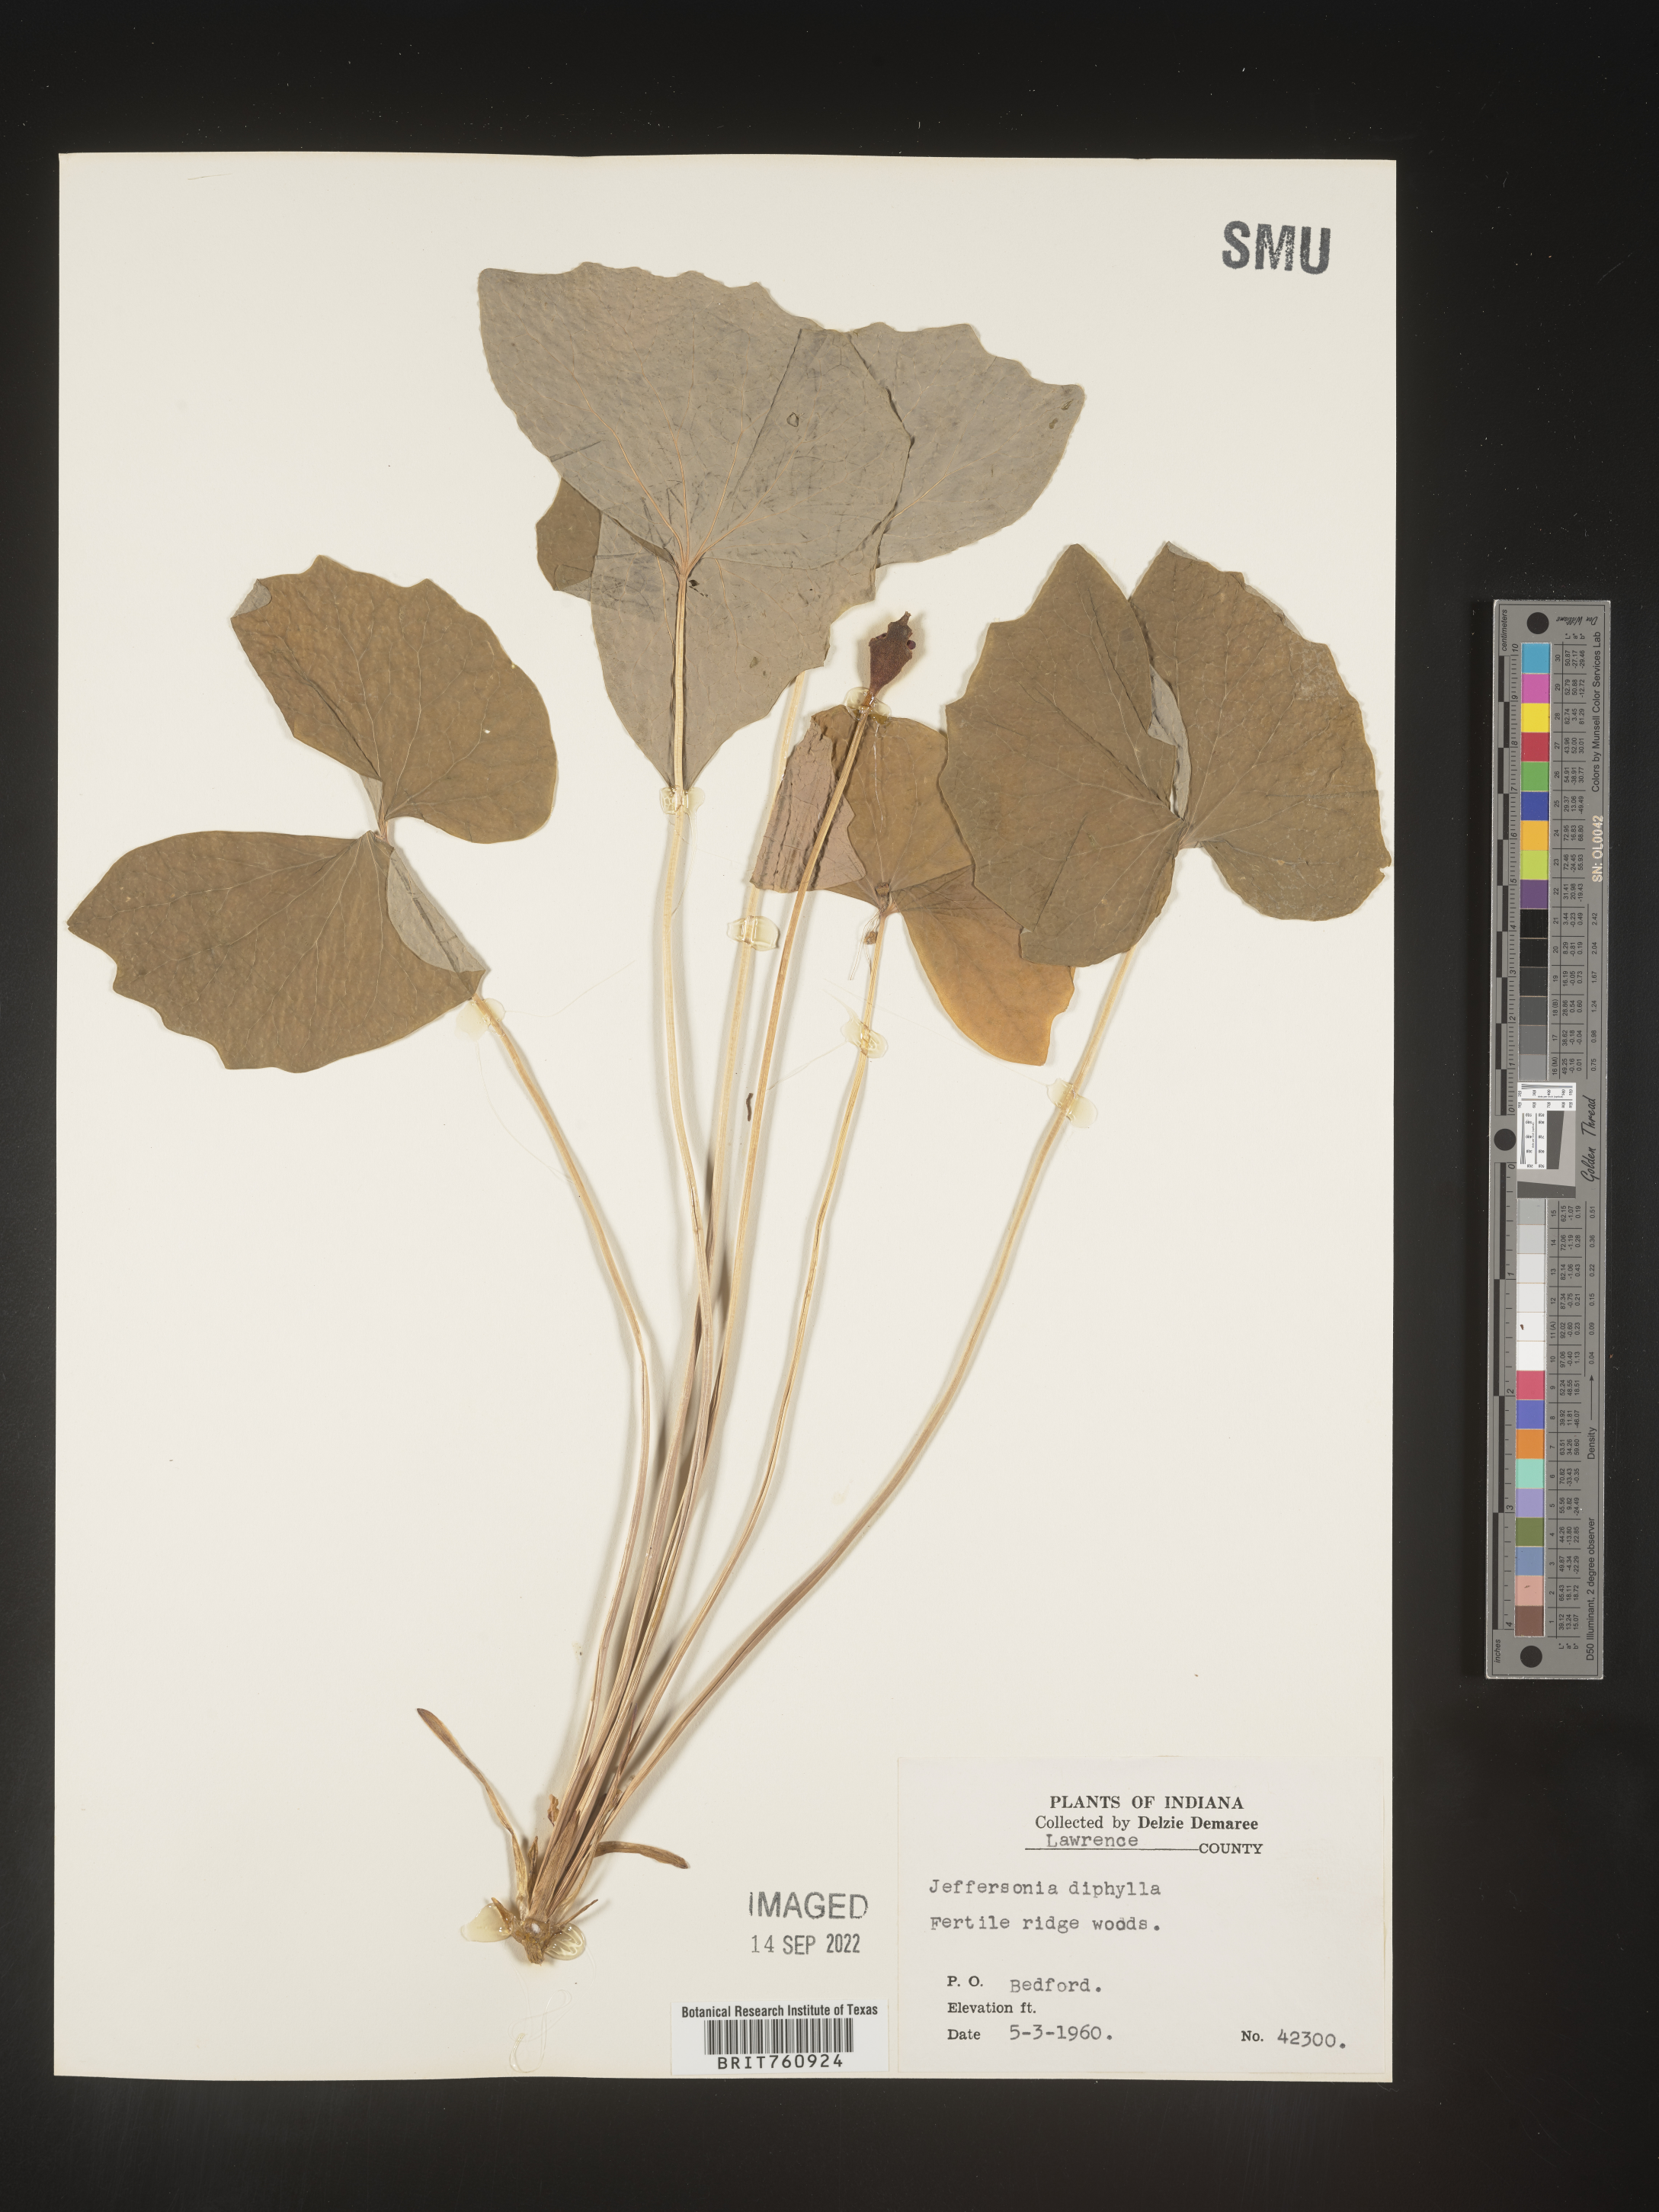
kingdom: Plantae
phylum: Tracheophyta
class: Magnoliopsida
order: Ranunculales
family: Berberidaceae
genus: Jeffersonia
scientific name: Jeffersonia
